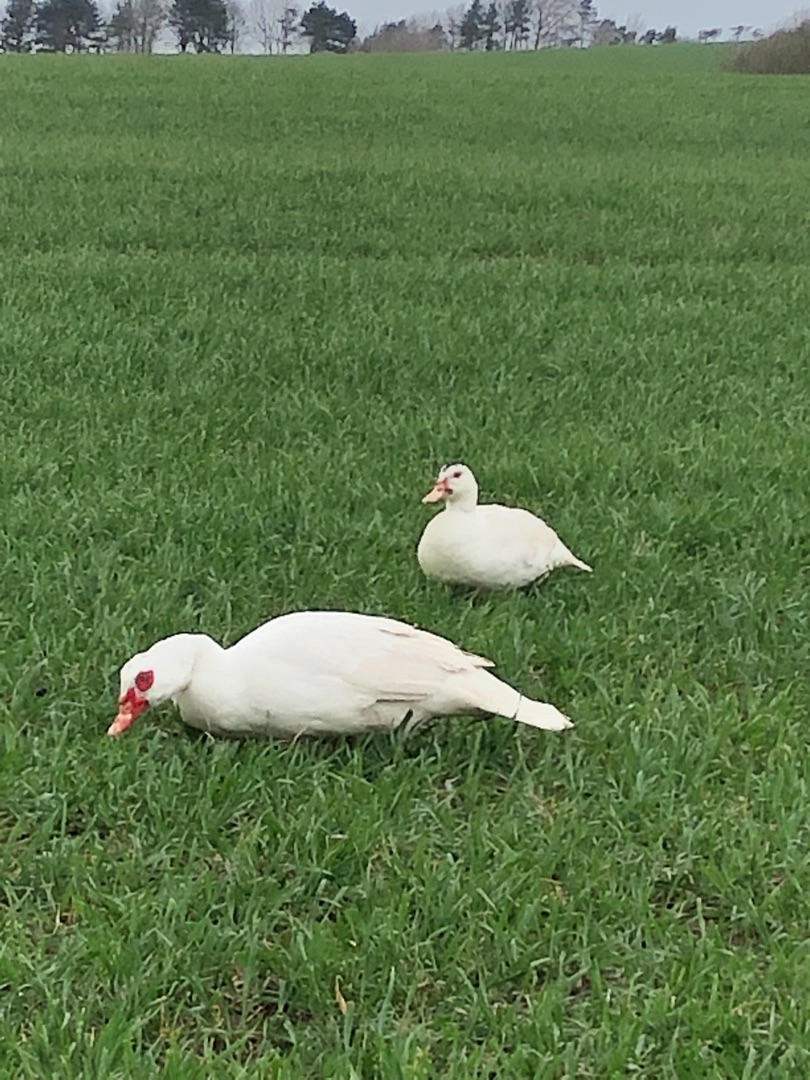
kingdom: Animalia
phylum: Chordata
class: Aves
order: Anseriformes
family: Anatidae
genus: Cairina
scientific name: Cairina moschata
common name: Moskusand
